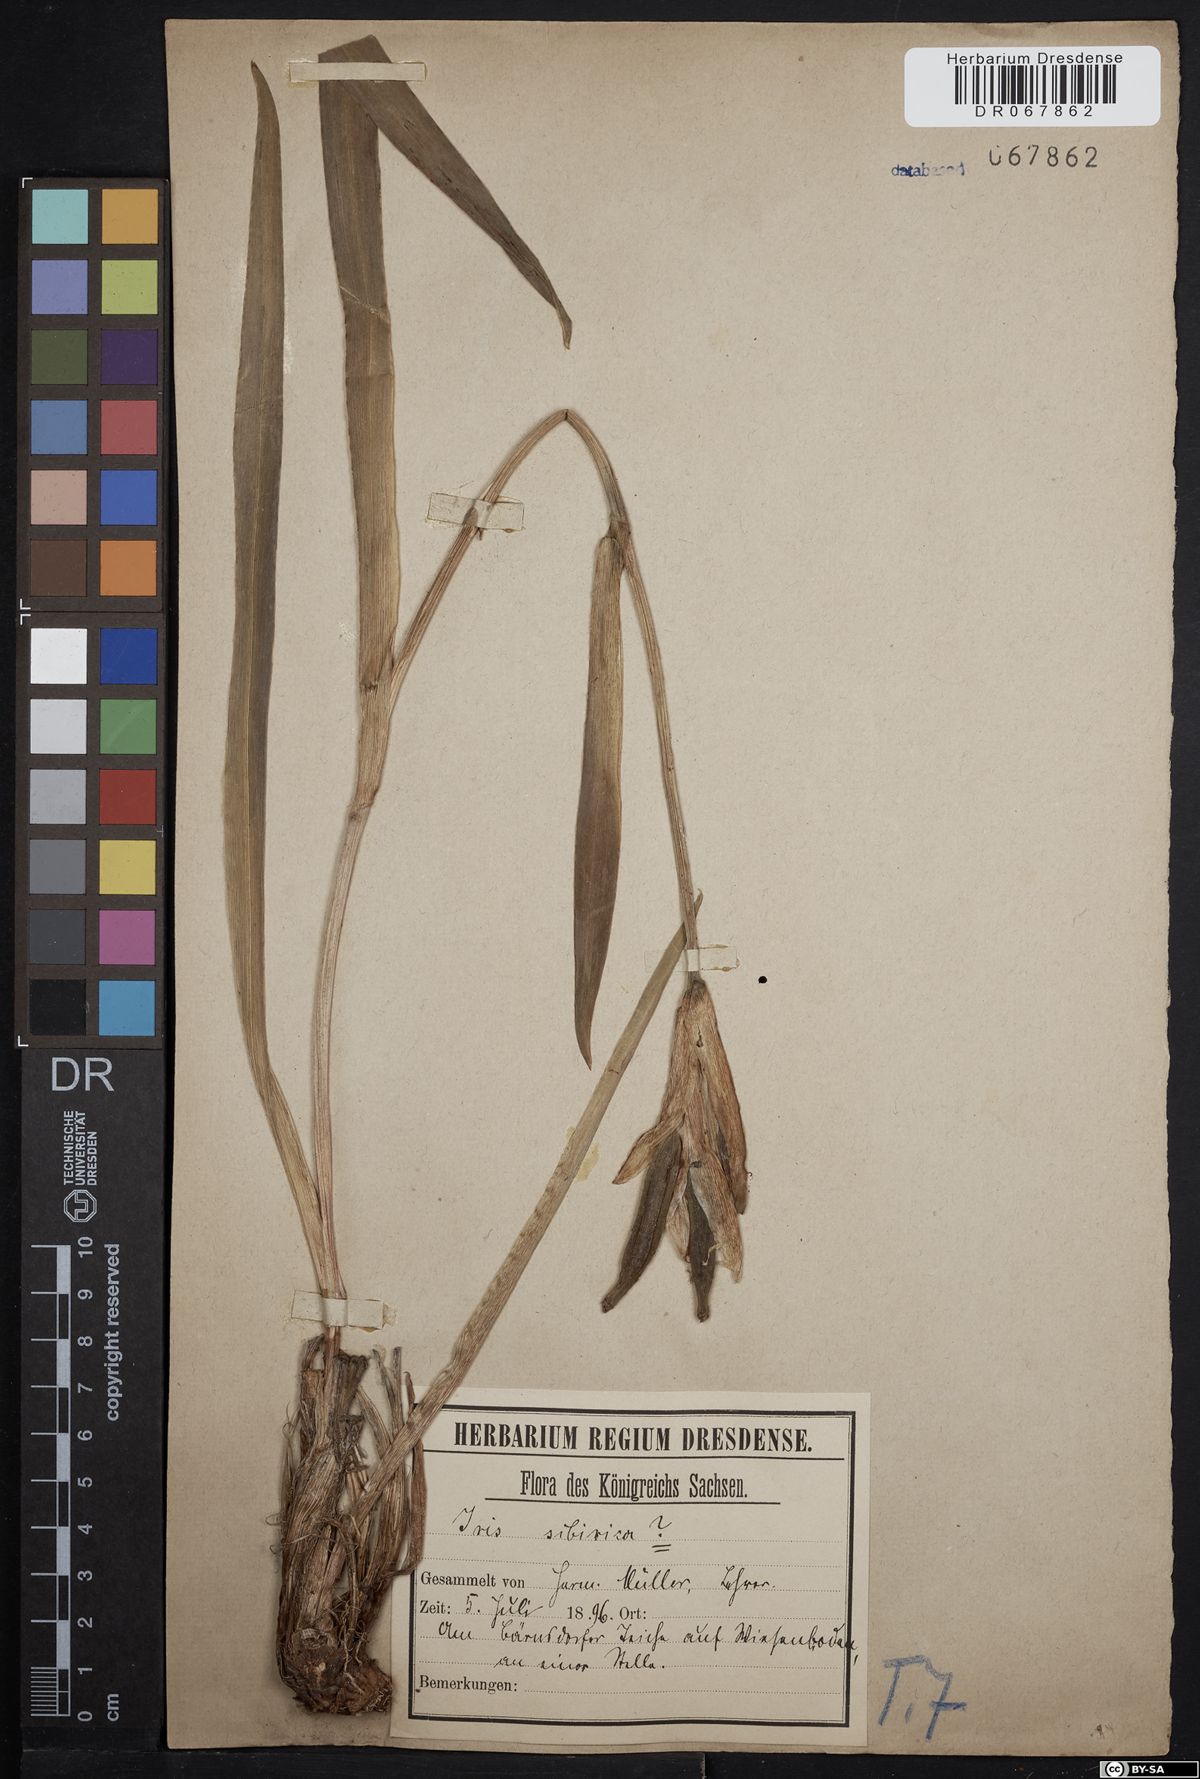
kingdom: Plantae
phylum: Tracheophyta
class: Liliopsida
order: Asparagales
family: Iridaceae
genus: Iris
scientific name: Iris sibirica
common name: Siberian iris
